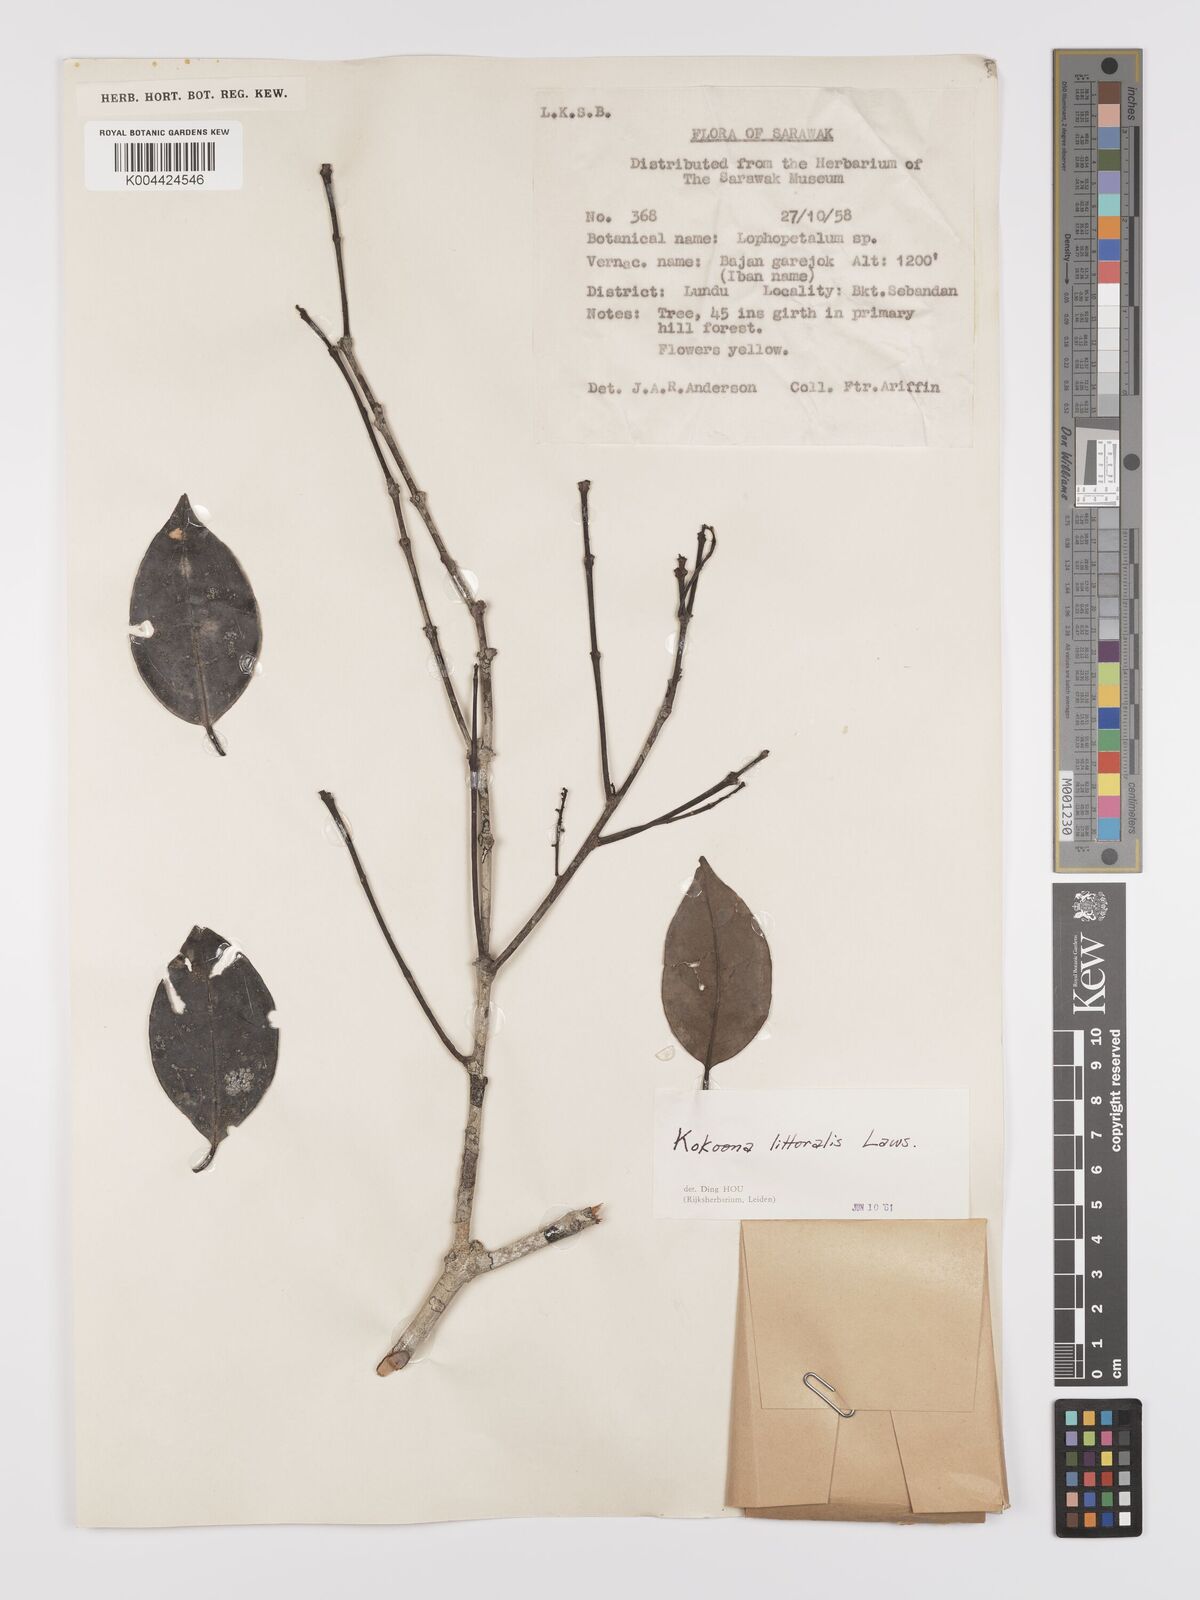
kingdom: Plantae
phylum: Tracheophyta
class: Magnoliopsida
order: Celastrales
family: Celastraceae
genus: Kokoona
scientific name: Kokoona littoralis
